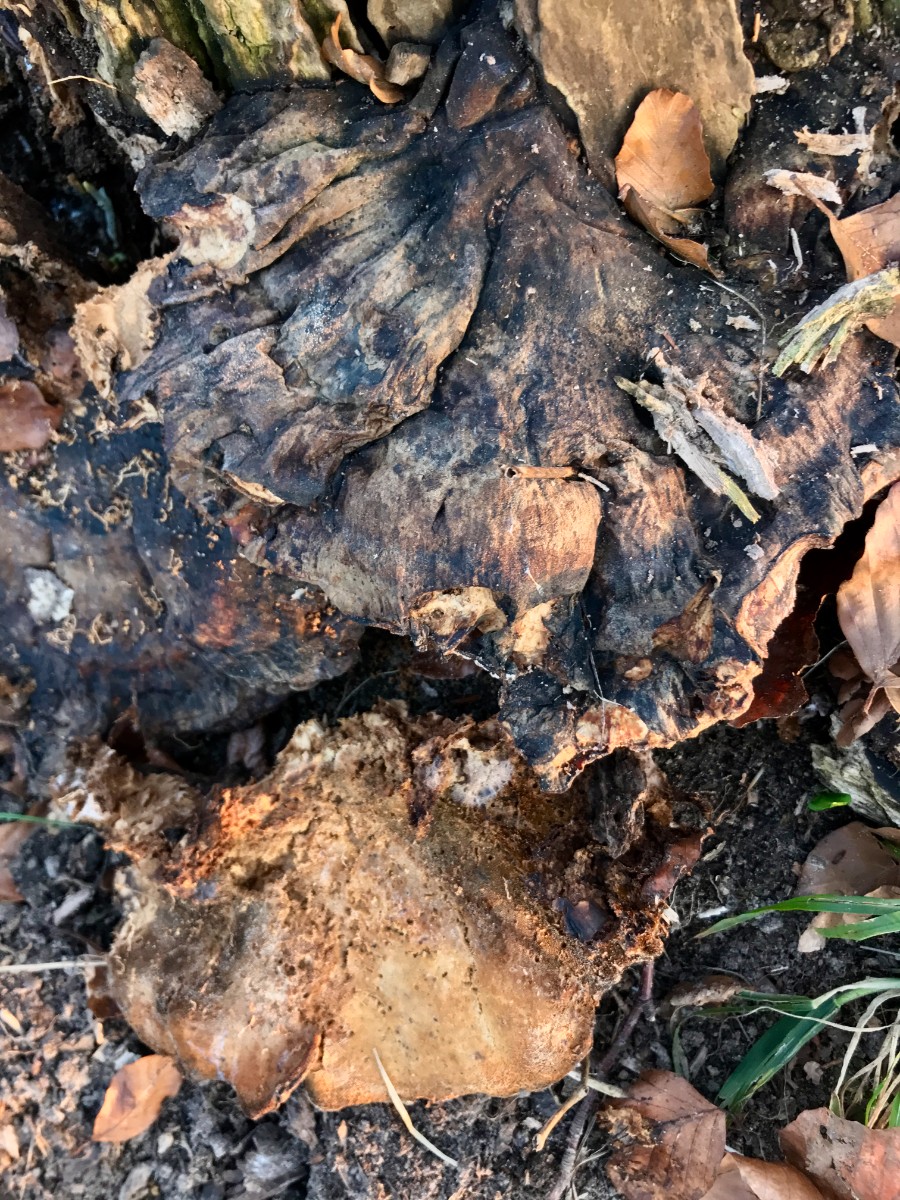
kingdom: Fungi
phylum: Basidiomycota
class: Agaricomycetes
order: Polyporales
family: Ischnodermataceae
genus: Ischnoderma
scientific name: Ischnoderma resinosum
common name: løv-tjæreporesvamp
